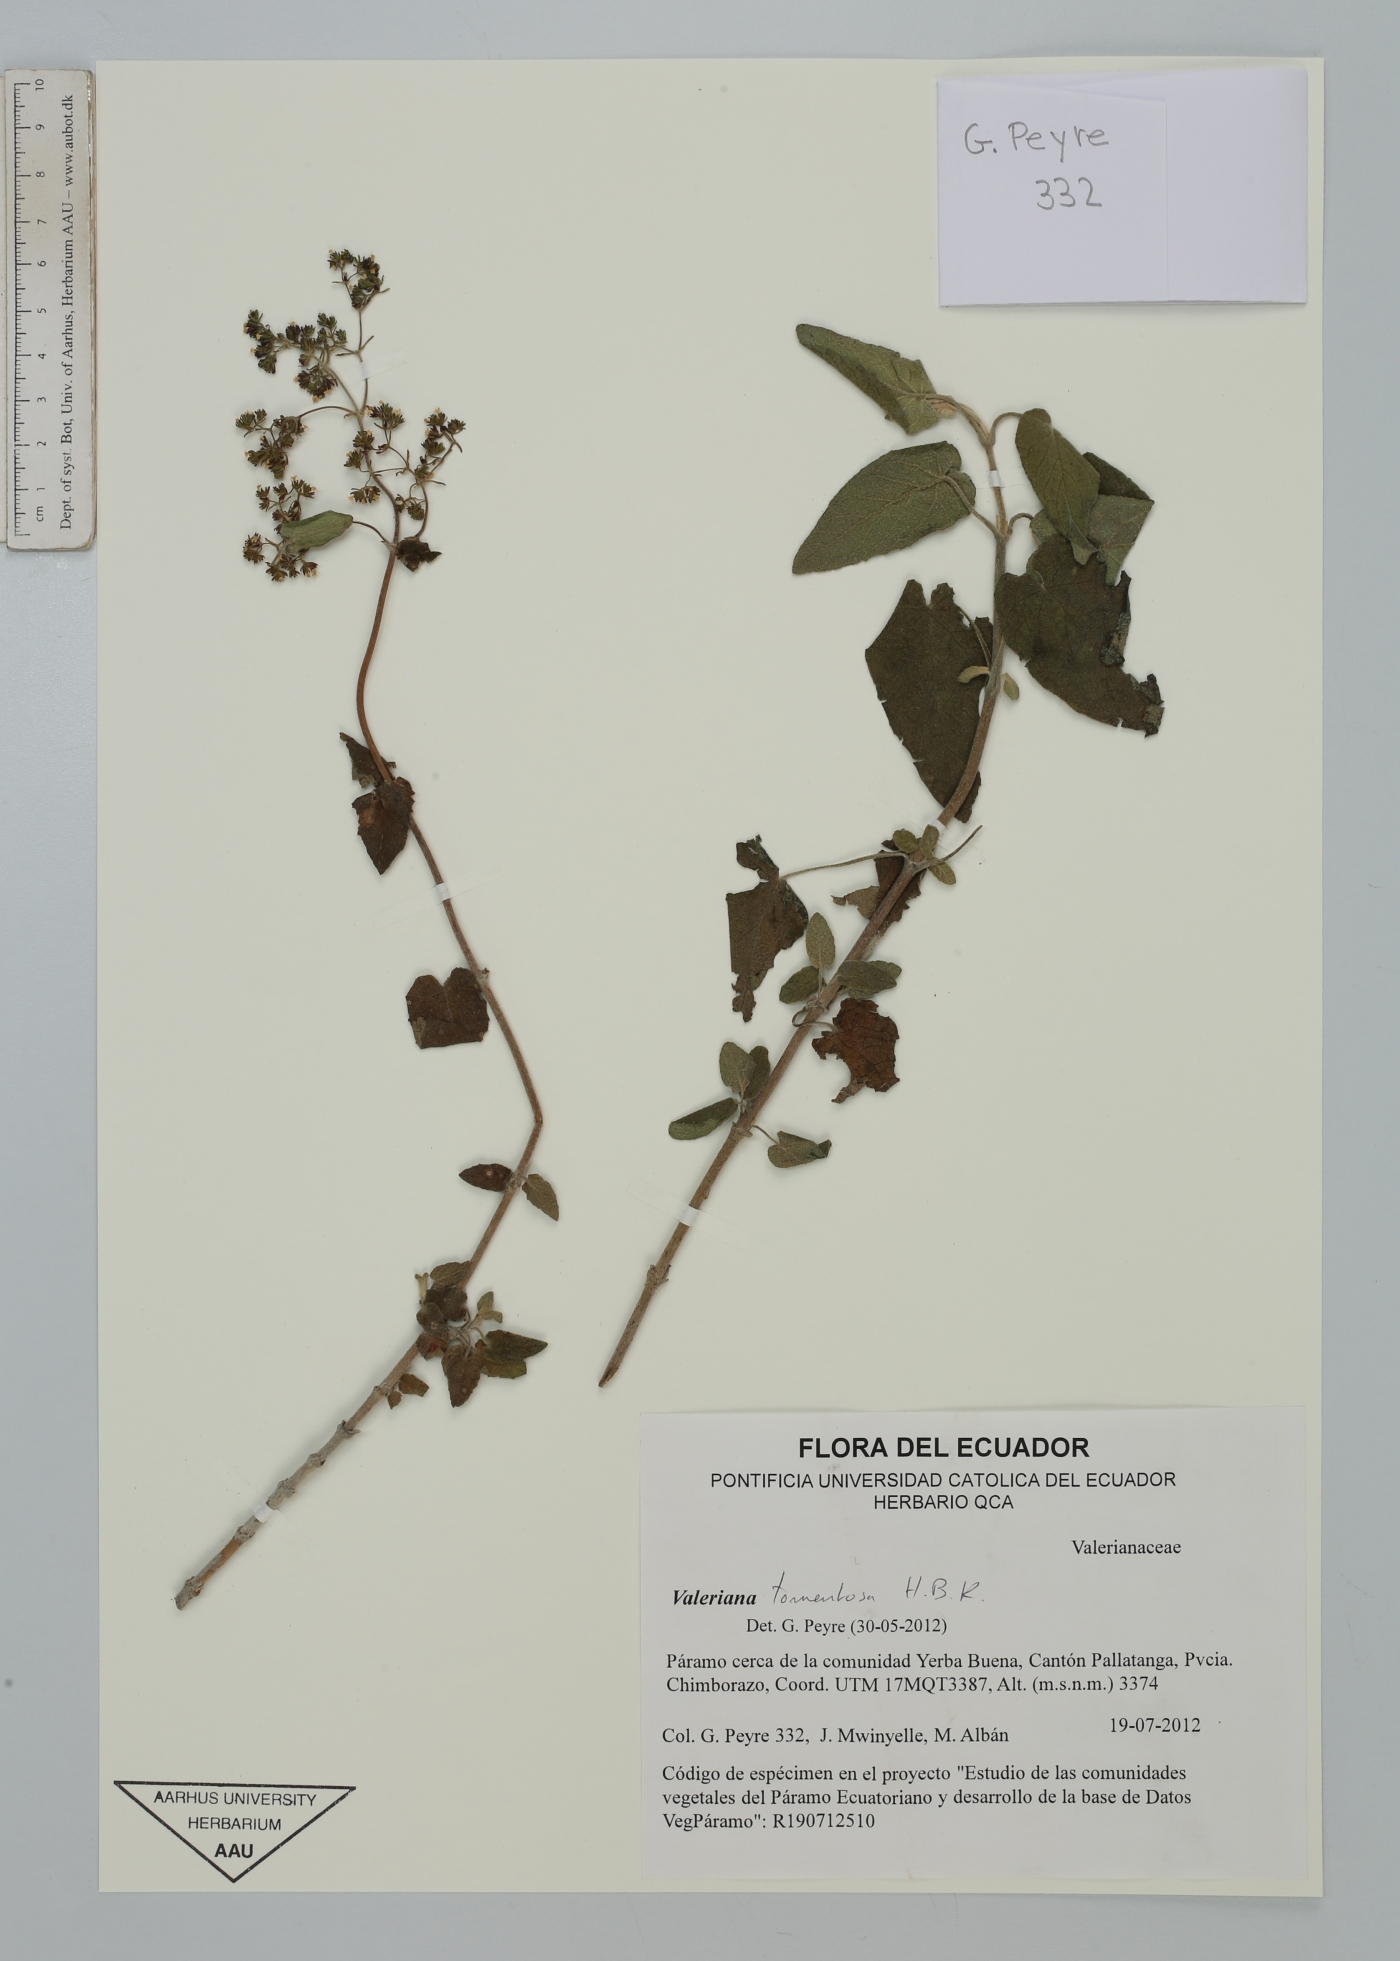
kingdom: Plantae
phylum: Tracheophyta
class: Magnoliopsida
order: Dipsacales
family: Caprifoliaceae
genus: Valeriana
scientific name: Valeriana tomentosa
